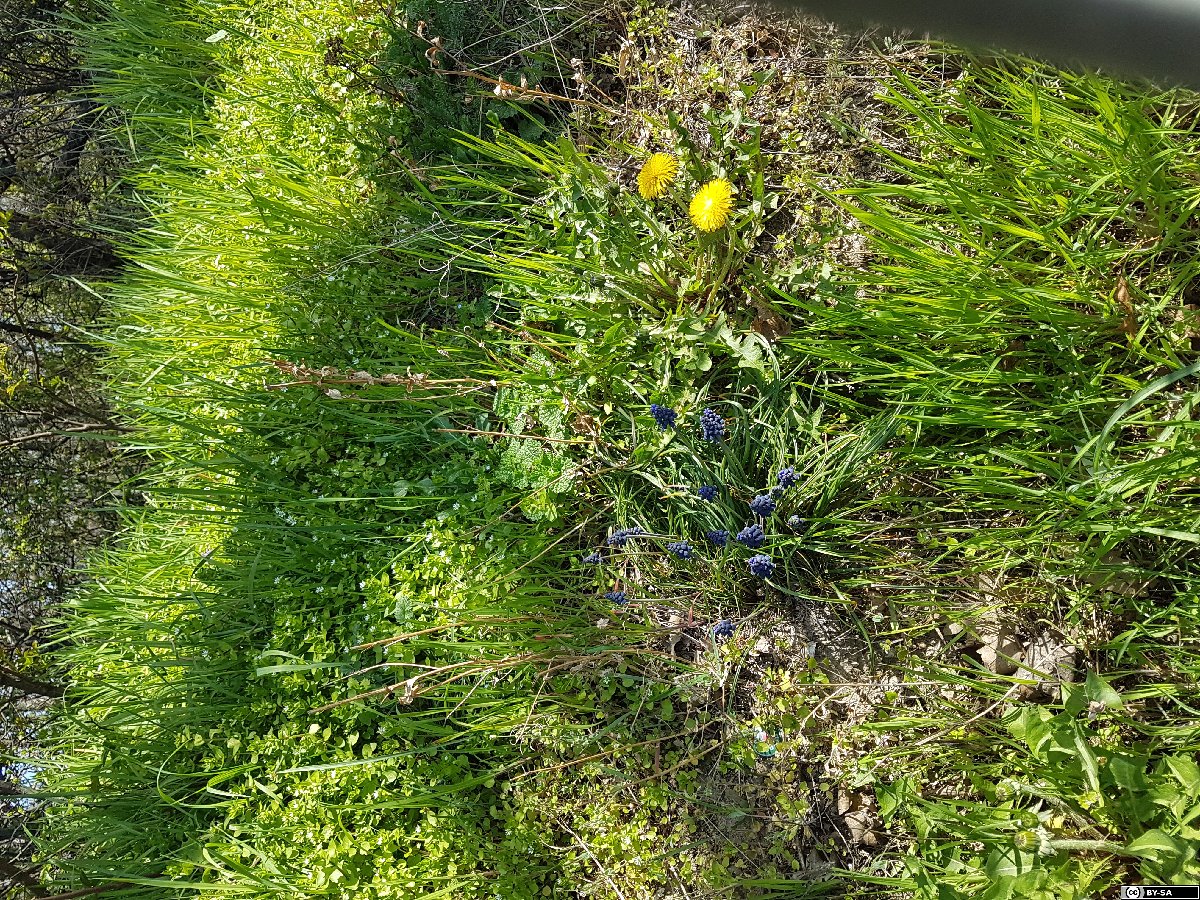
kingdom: Plantae
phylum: Tracheophyta
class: Liliopsida
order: Asparagales
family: Asparagaceae
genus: Muscari
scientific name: Muscari armeniacum
